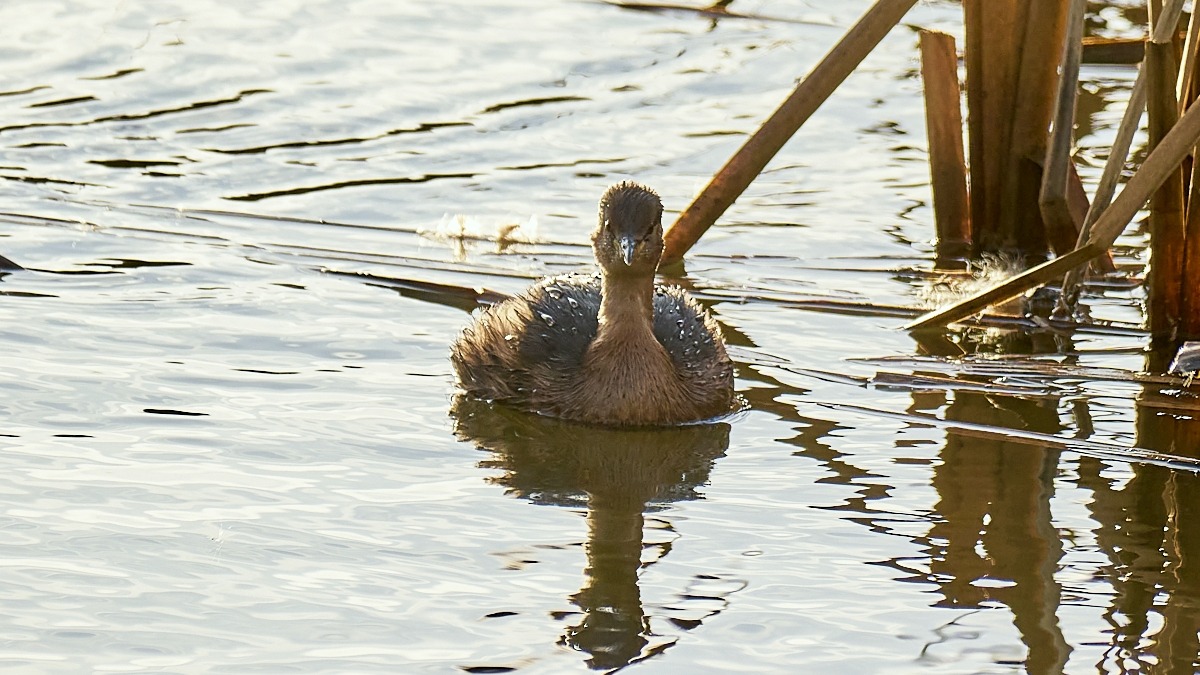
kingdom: Animalia
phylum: Chordata
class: Aves
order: Podicipediformes
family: Podicipedidae
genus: Tachybaptus
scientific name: Tachybaptus ruficollis
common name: Lille lappedykker
